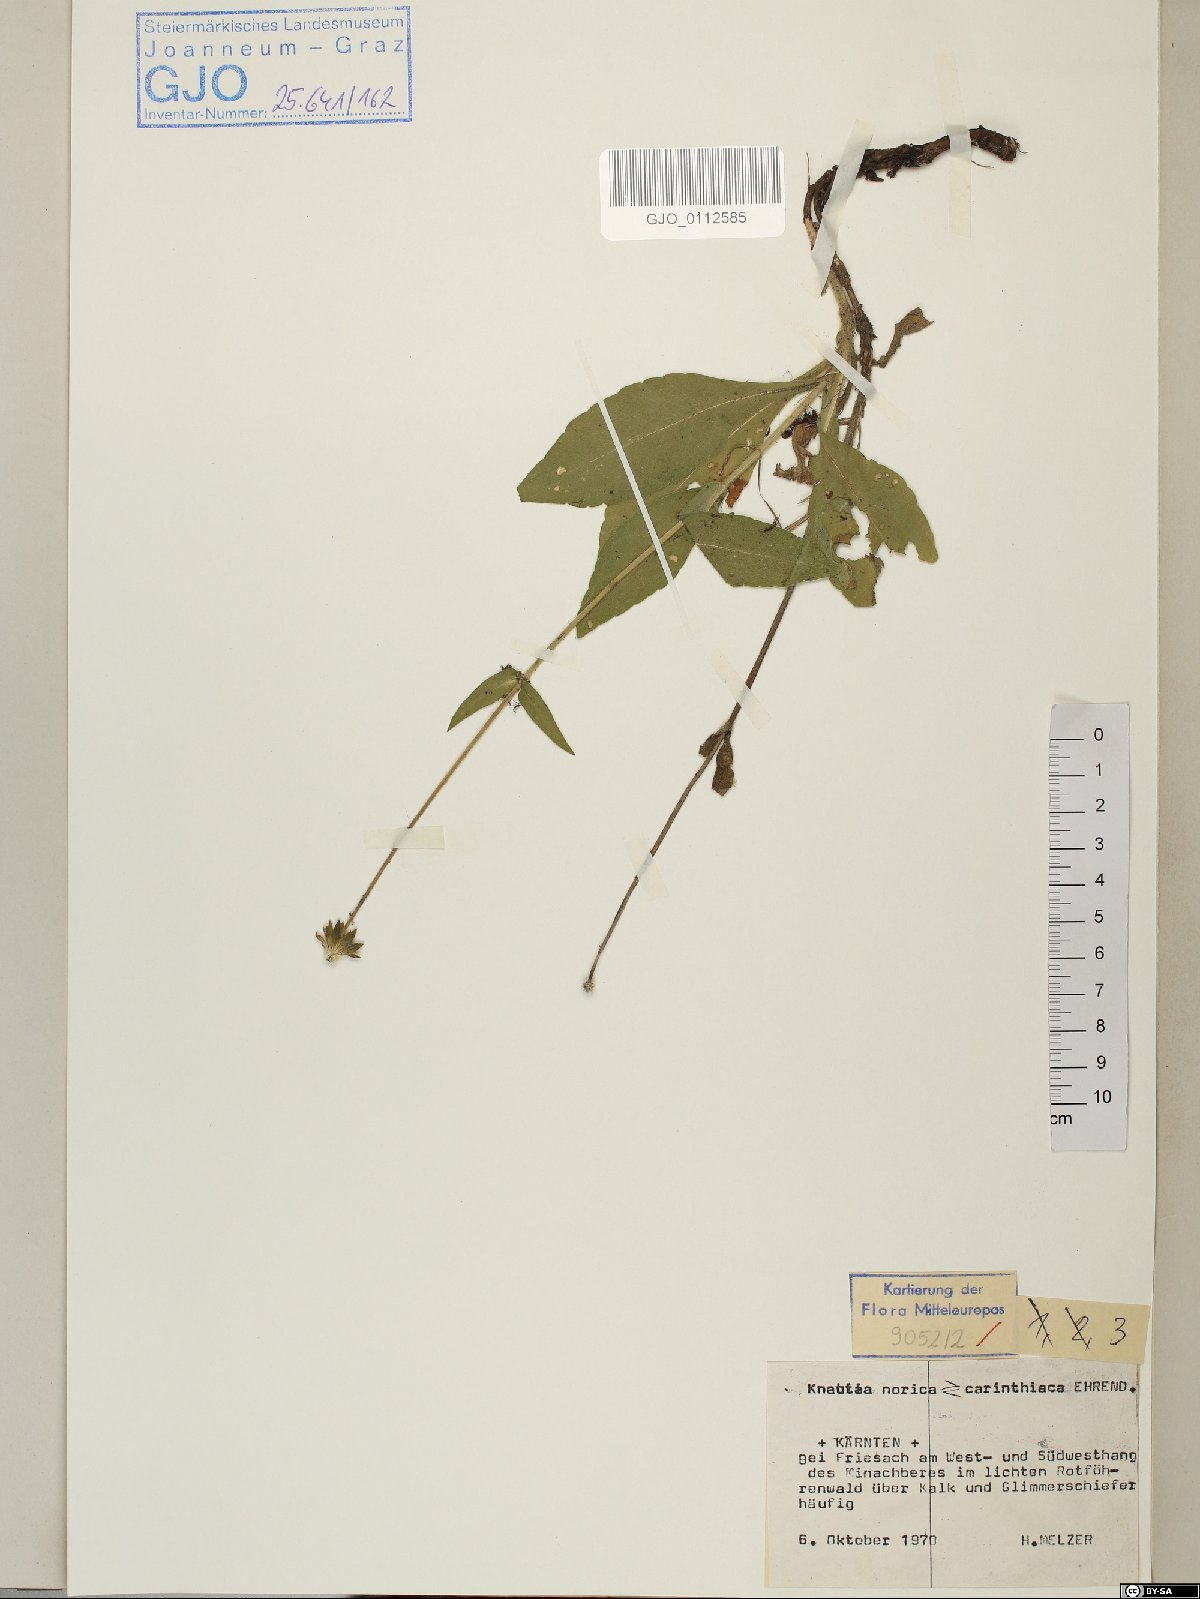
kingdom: Plantae
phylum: Tracheophyta
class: Magnoliopsida
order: Dipsacales
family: Dipsacaceae
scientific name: Dipsacaceae
